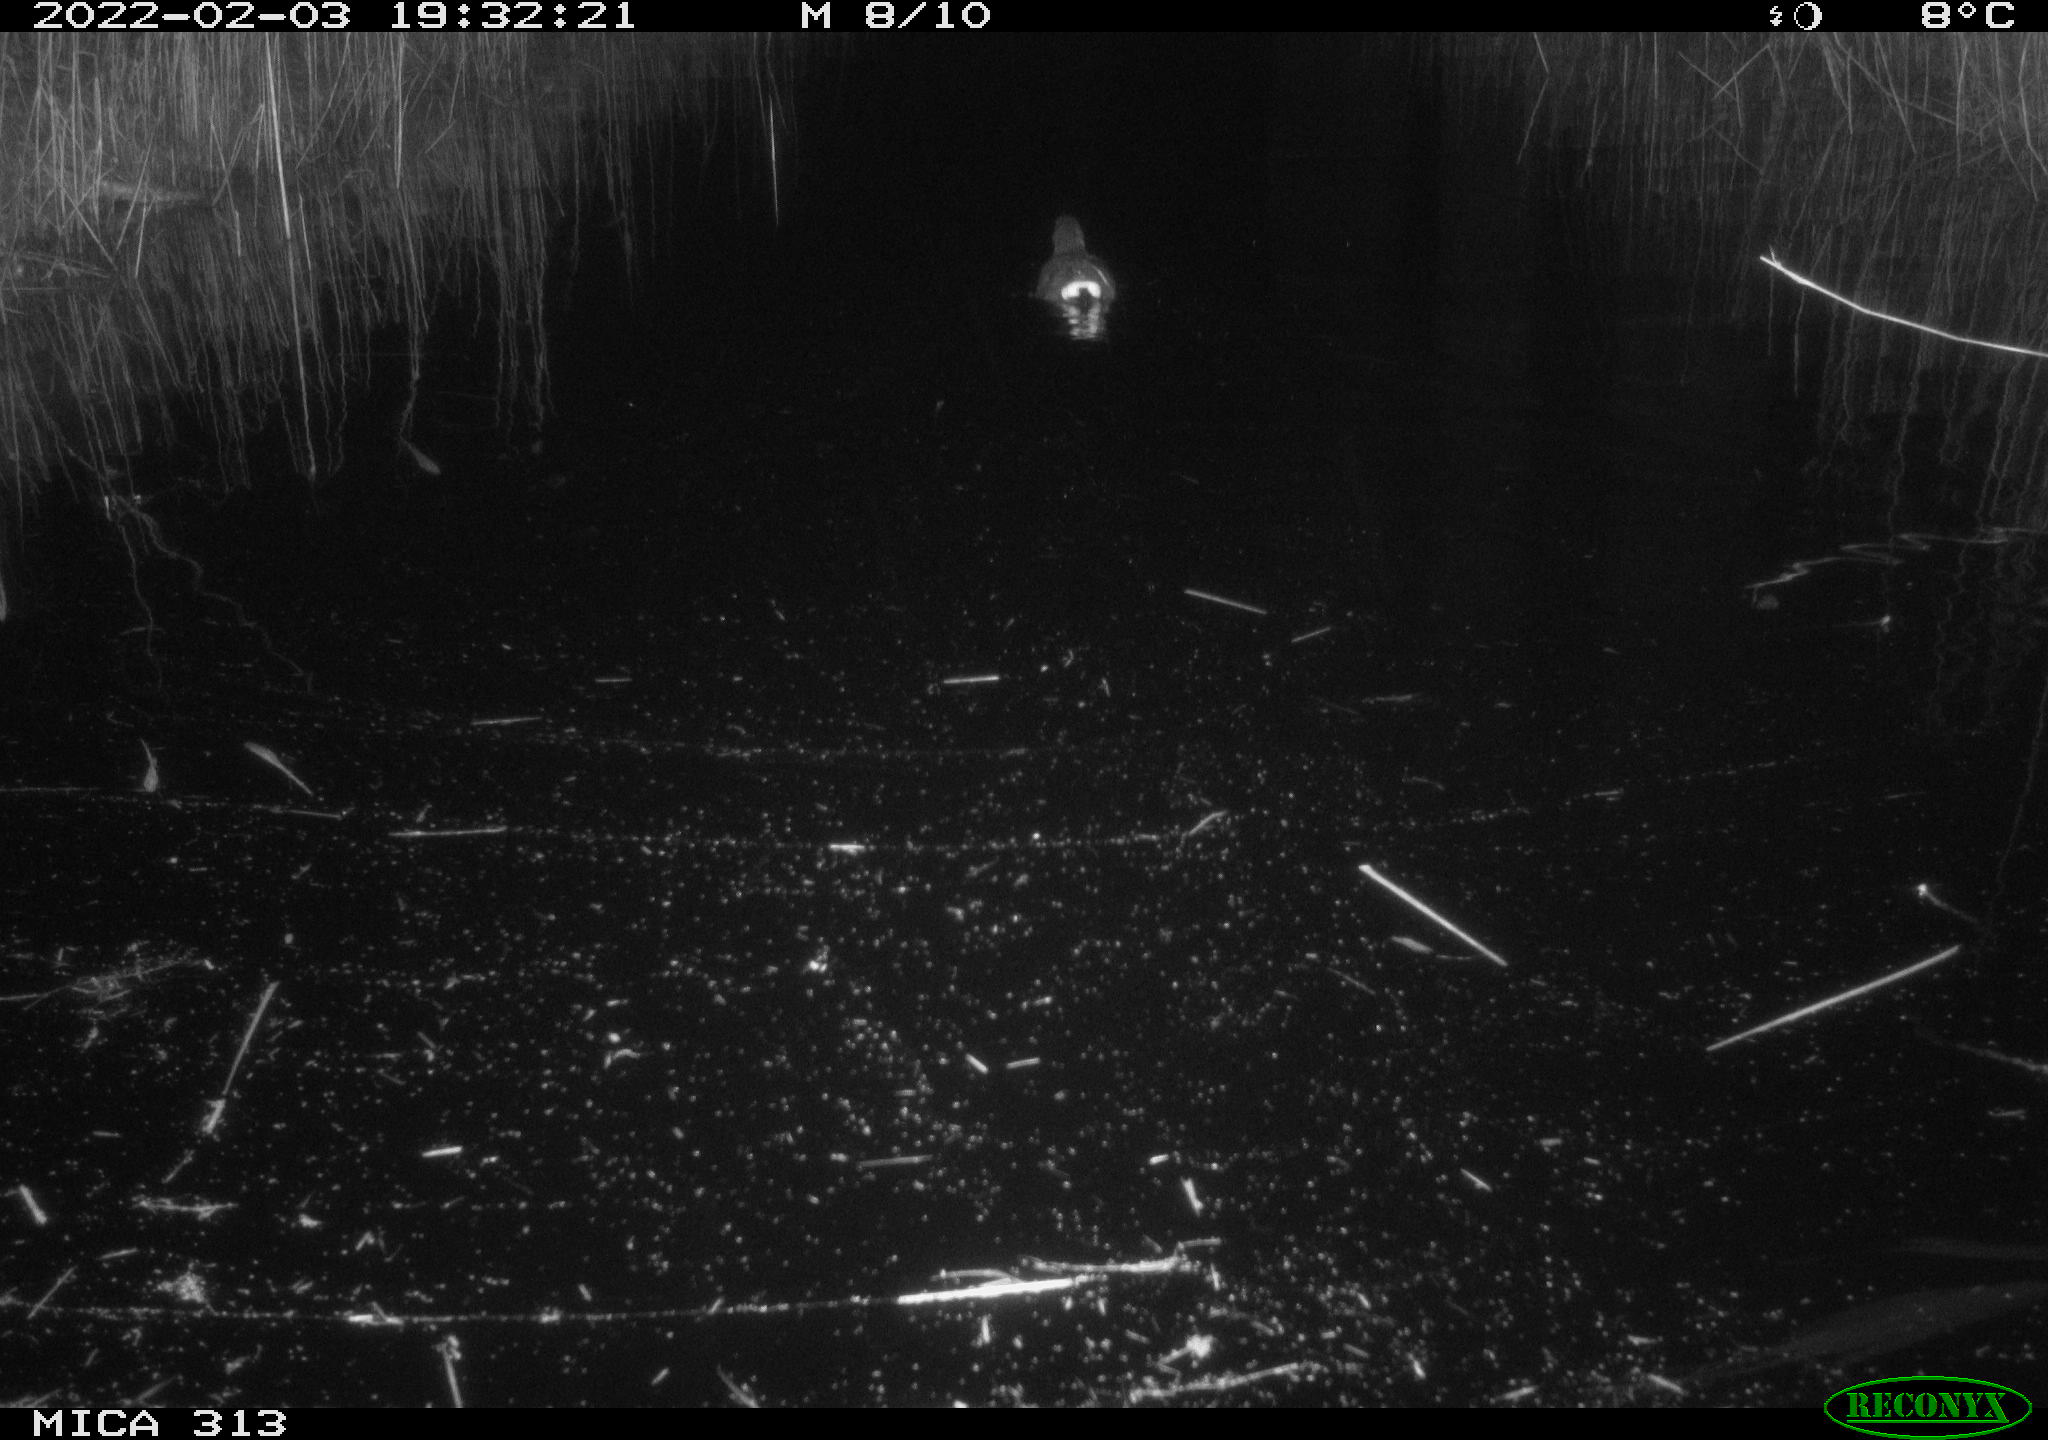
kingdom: Animalia
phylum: Chordata
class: Aves
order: Gruiformes
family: Rallidae
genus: Gallinula
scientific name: Gallinula chloropus
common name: Common moorhen
